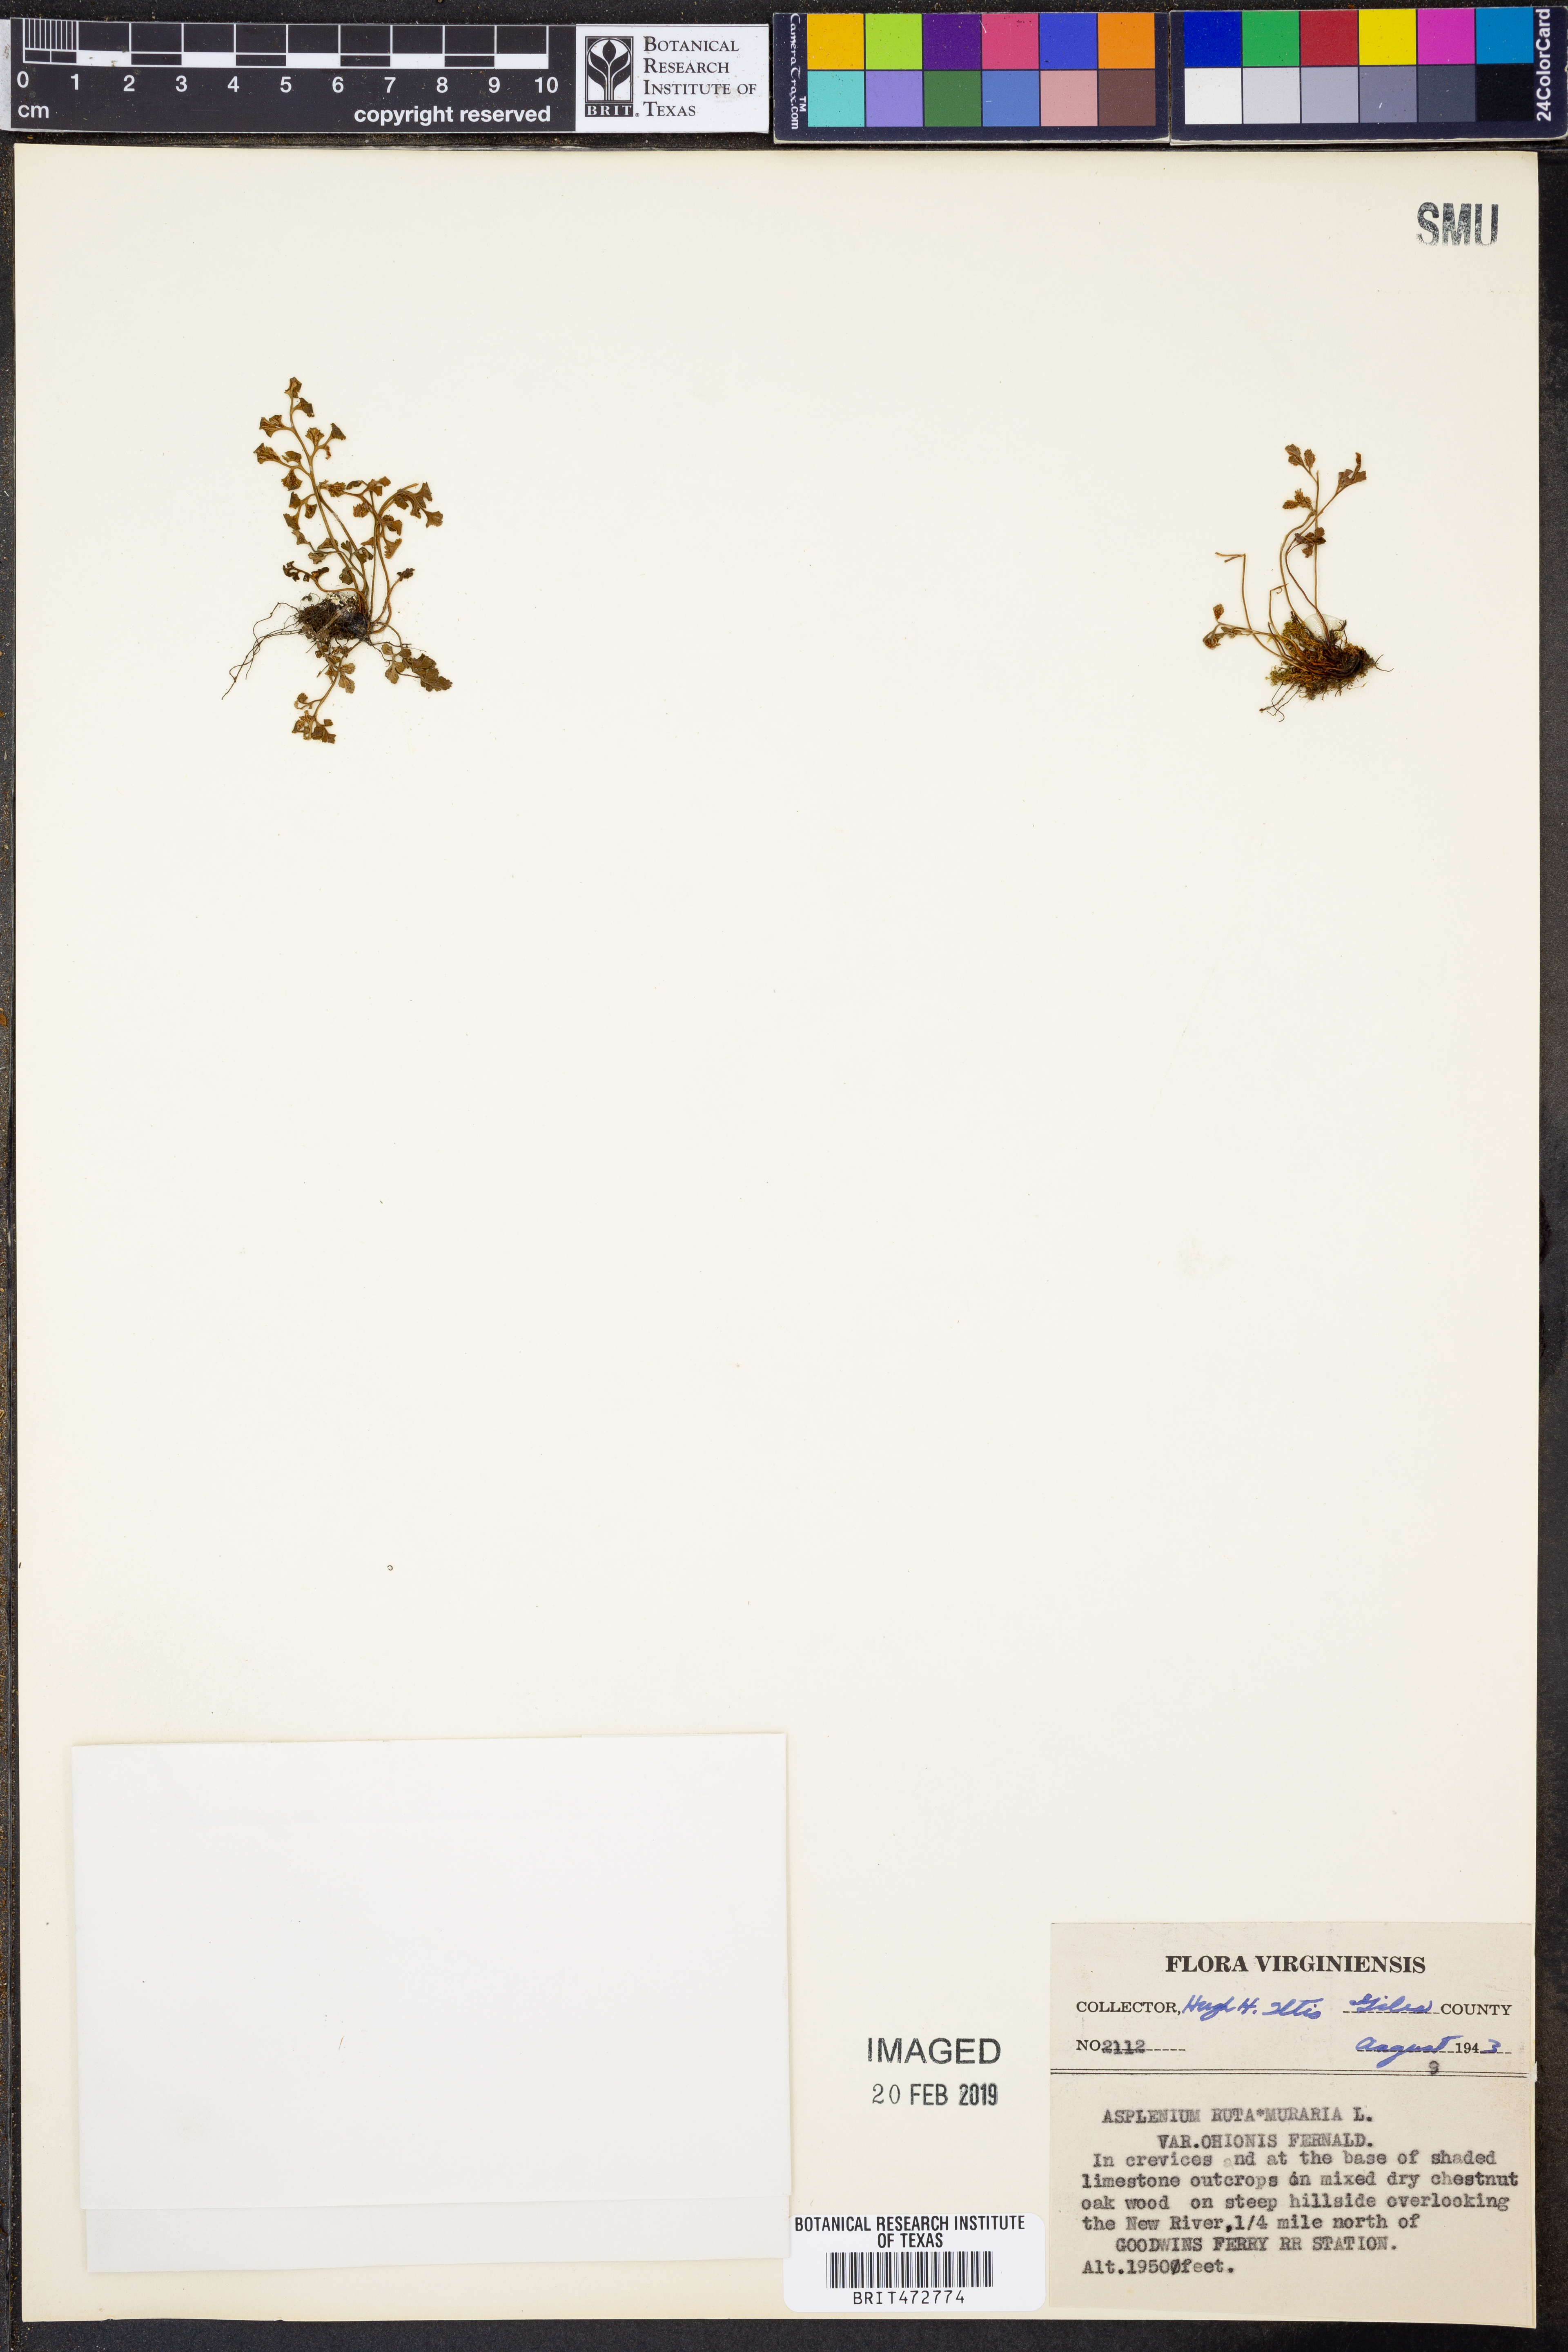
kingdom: Plantae
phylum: Tracheophyta
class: Polypodiopsida
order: Polypodiales
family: Aspleniaceae
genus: Asplenium
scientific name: Asplenium ruta-muraria
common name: Wall-rue
